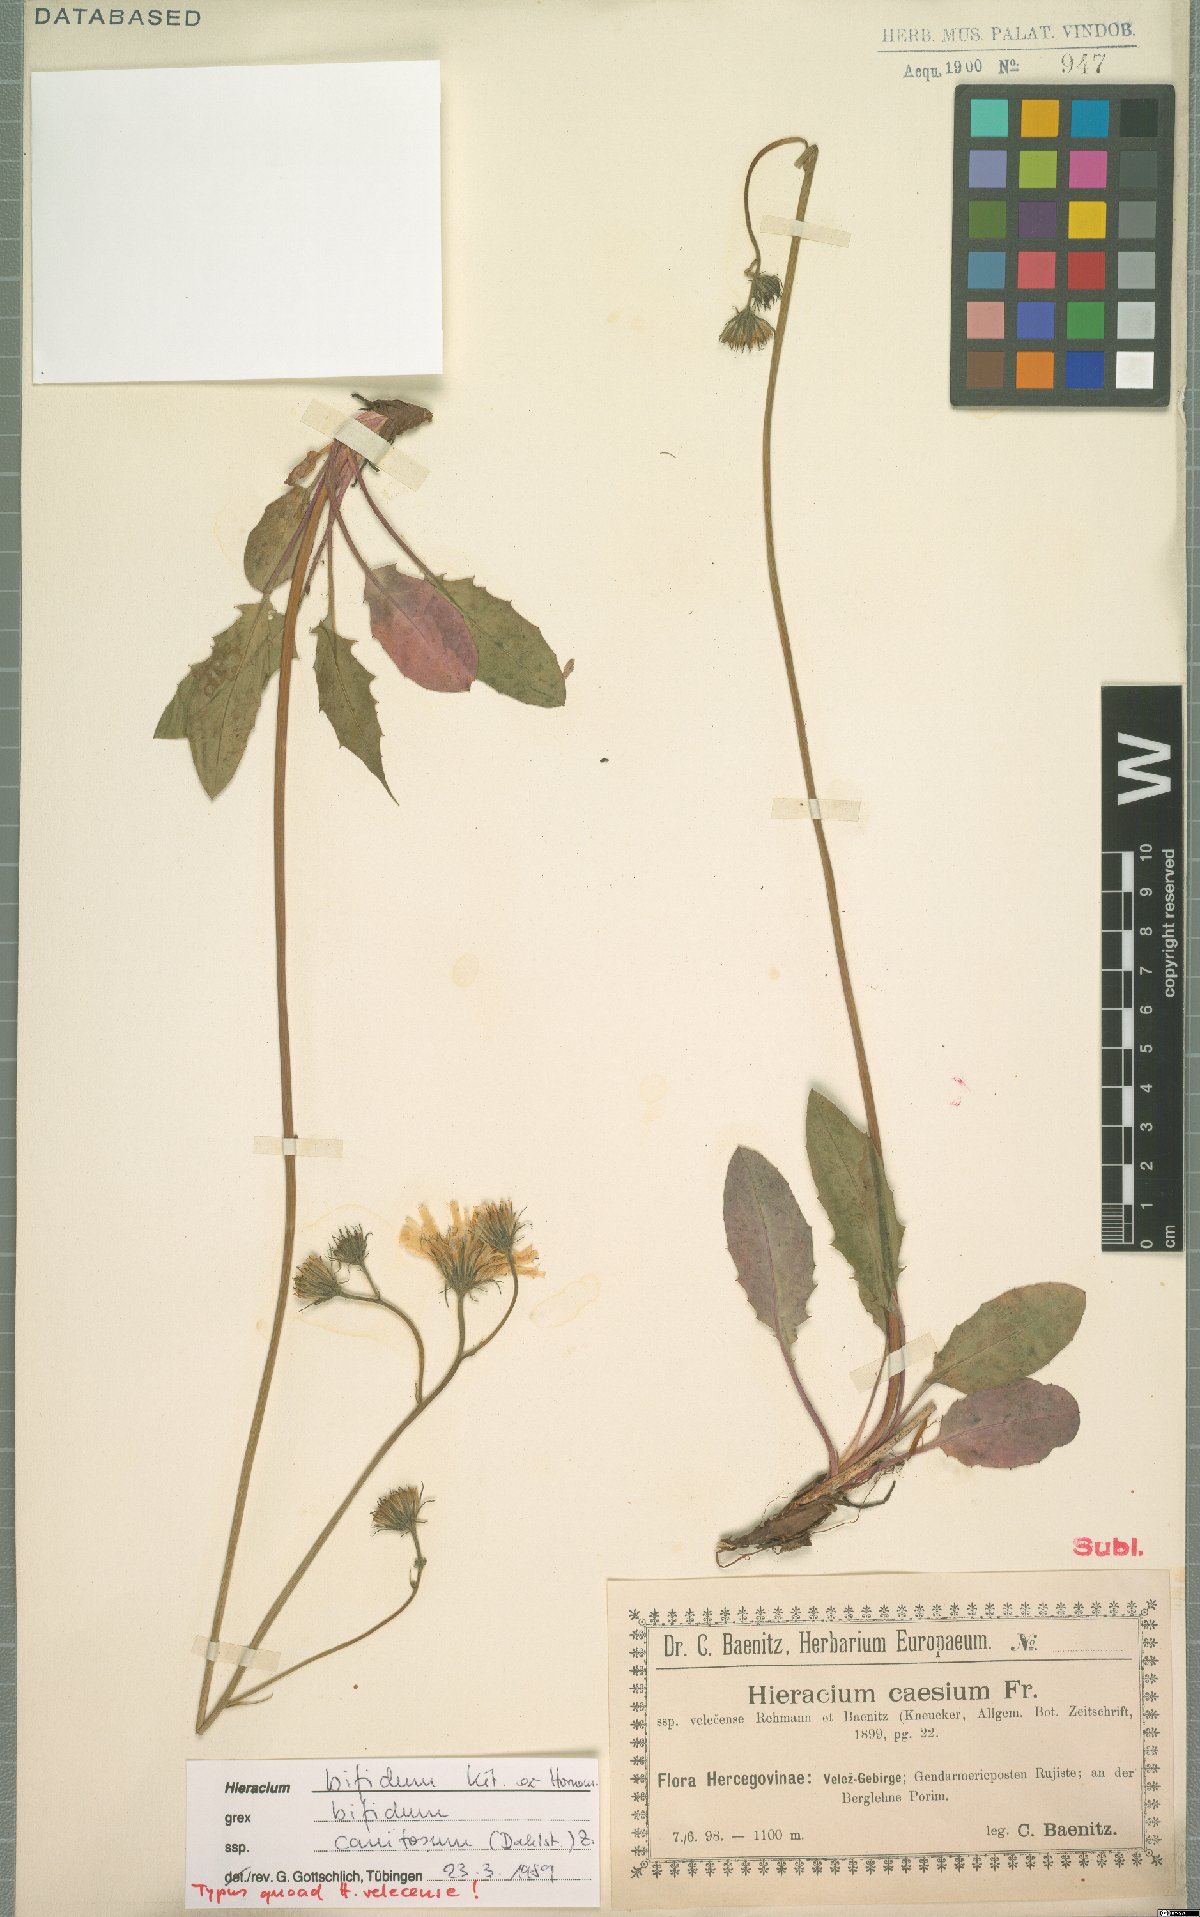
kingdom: Plantae
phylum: Tracheophyta
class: Magnoliopsida
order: Asterales
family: Asteraceae
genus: Hieracium
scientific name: Hieracium bifidum
